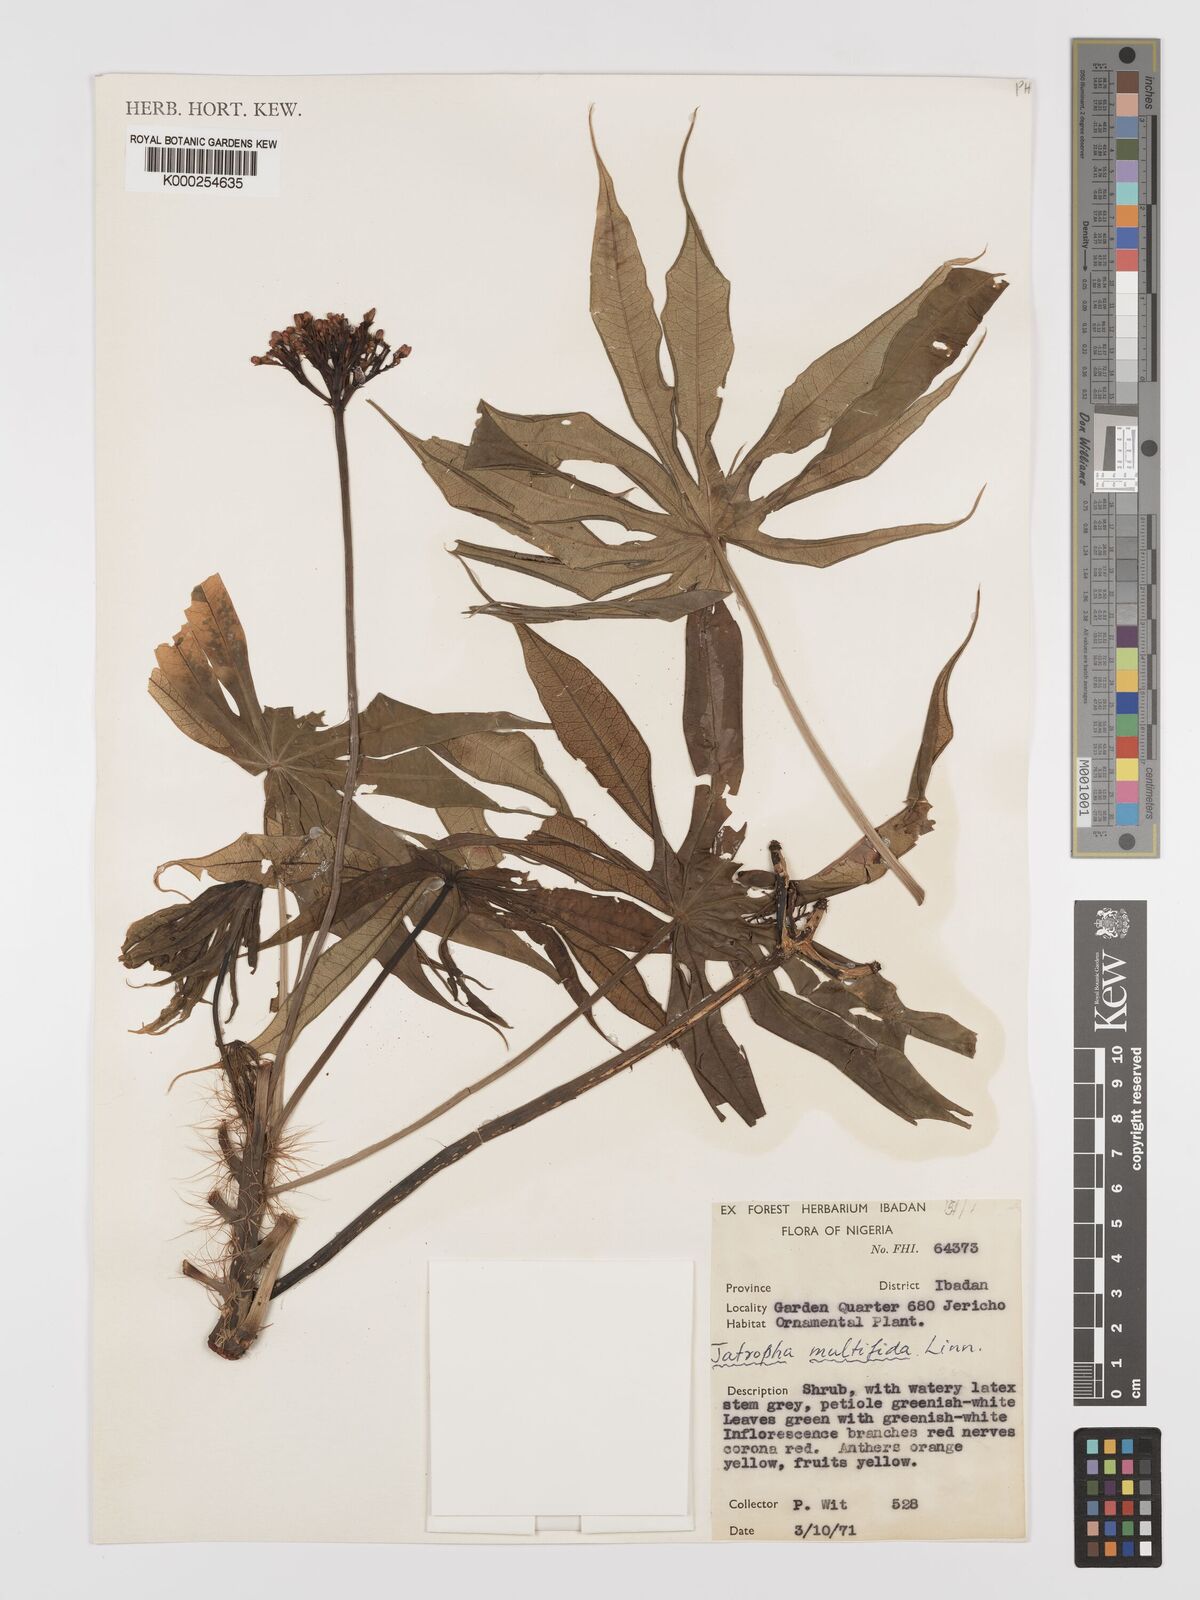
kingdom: Plantae
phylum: Tracheophyta
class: Magnoliopsida
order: Malpighiales
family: Euphorbiaceae
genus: Jatropha
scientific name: Jatropha multifida
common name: Coralbush
